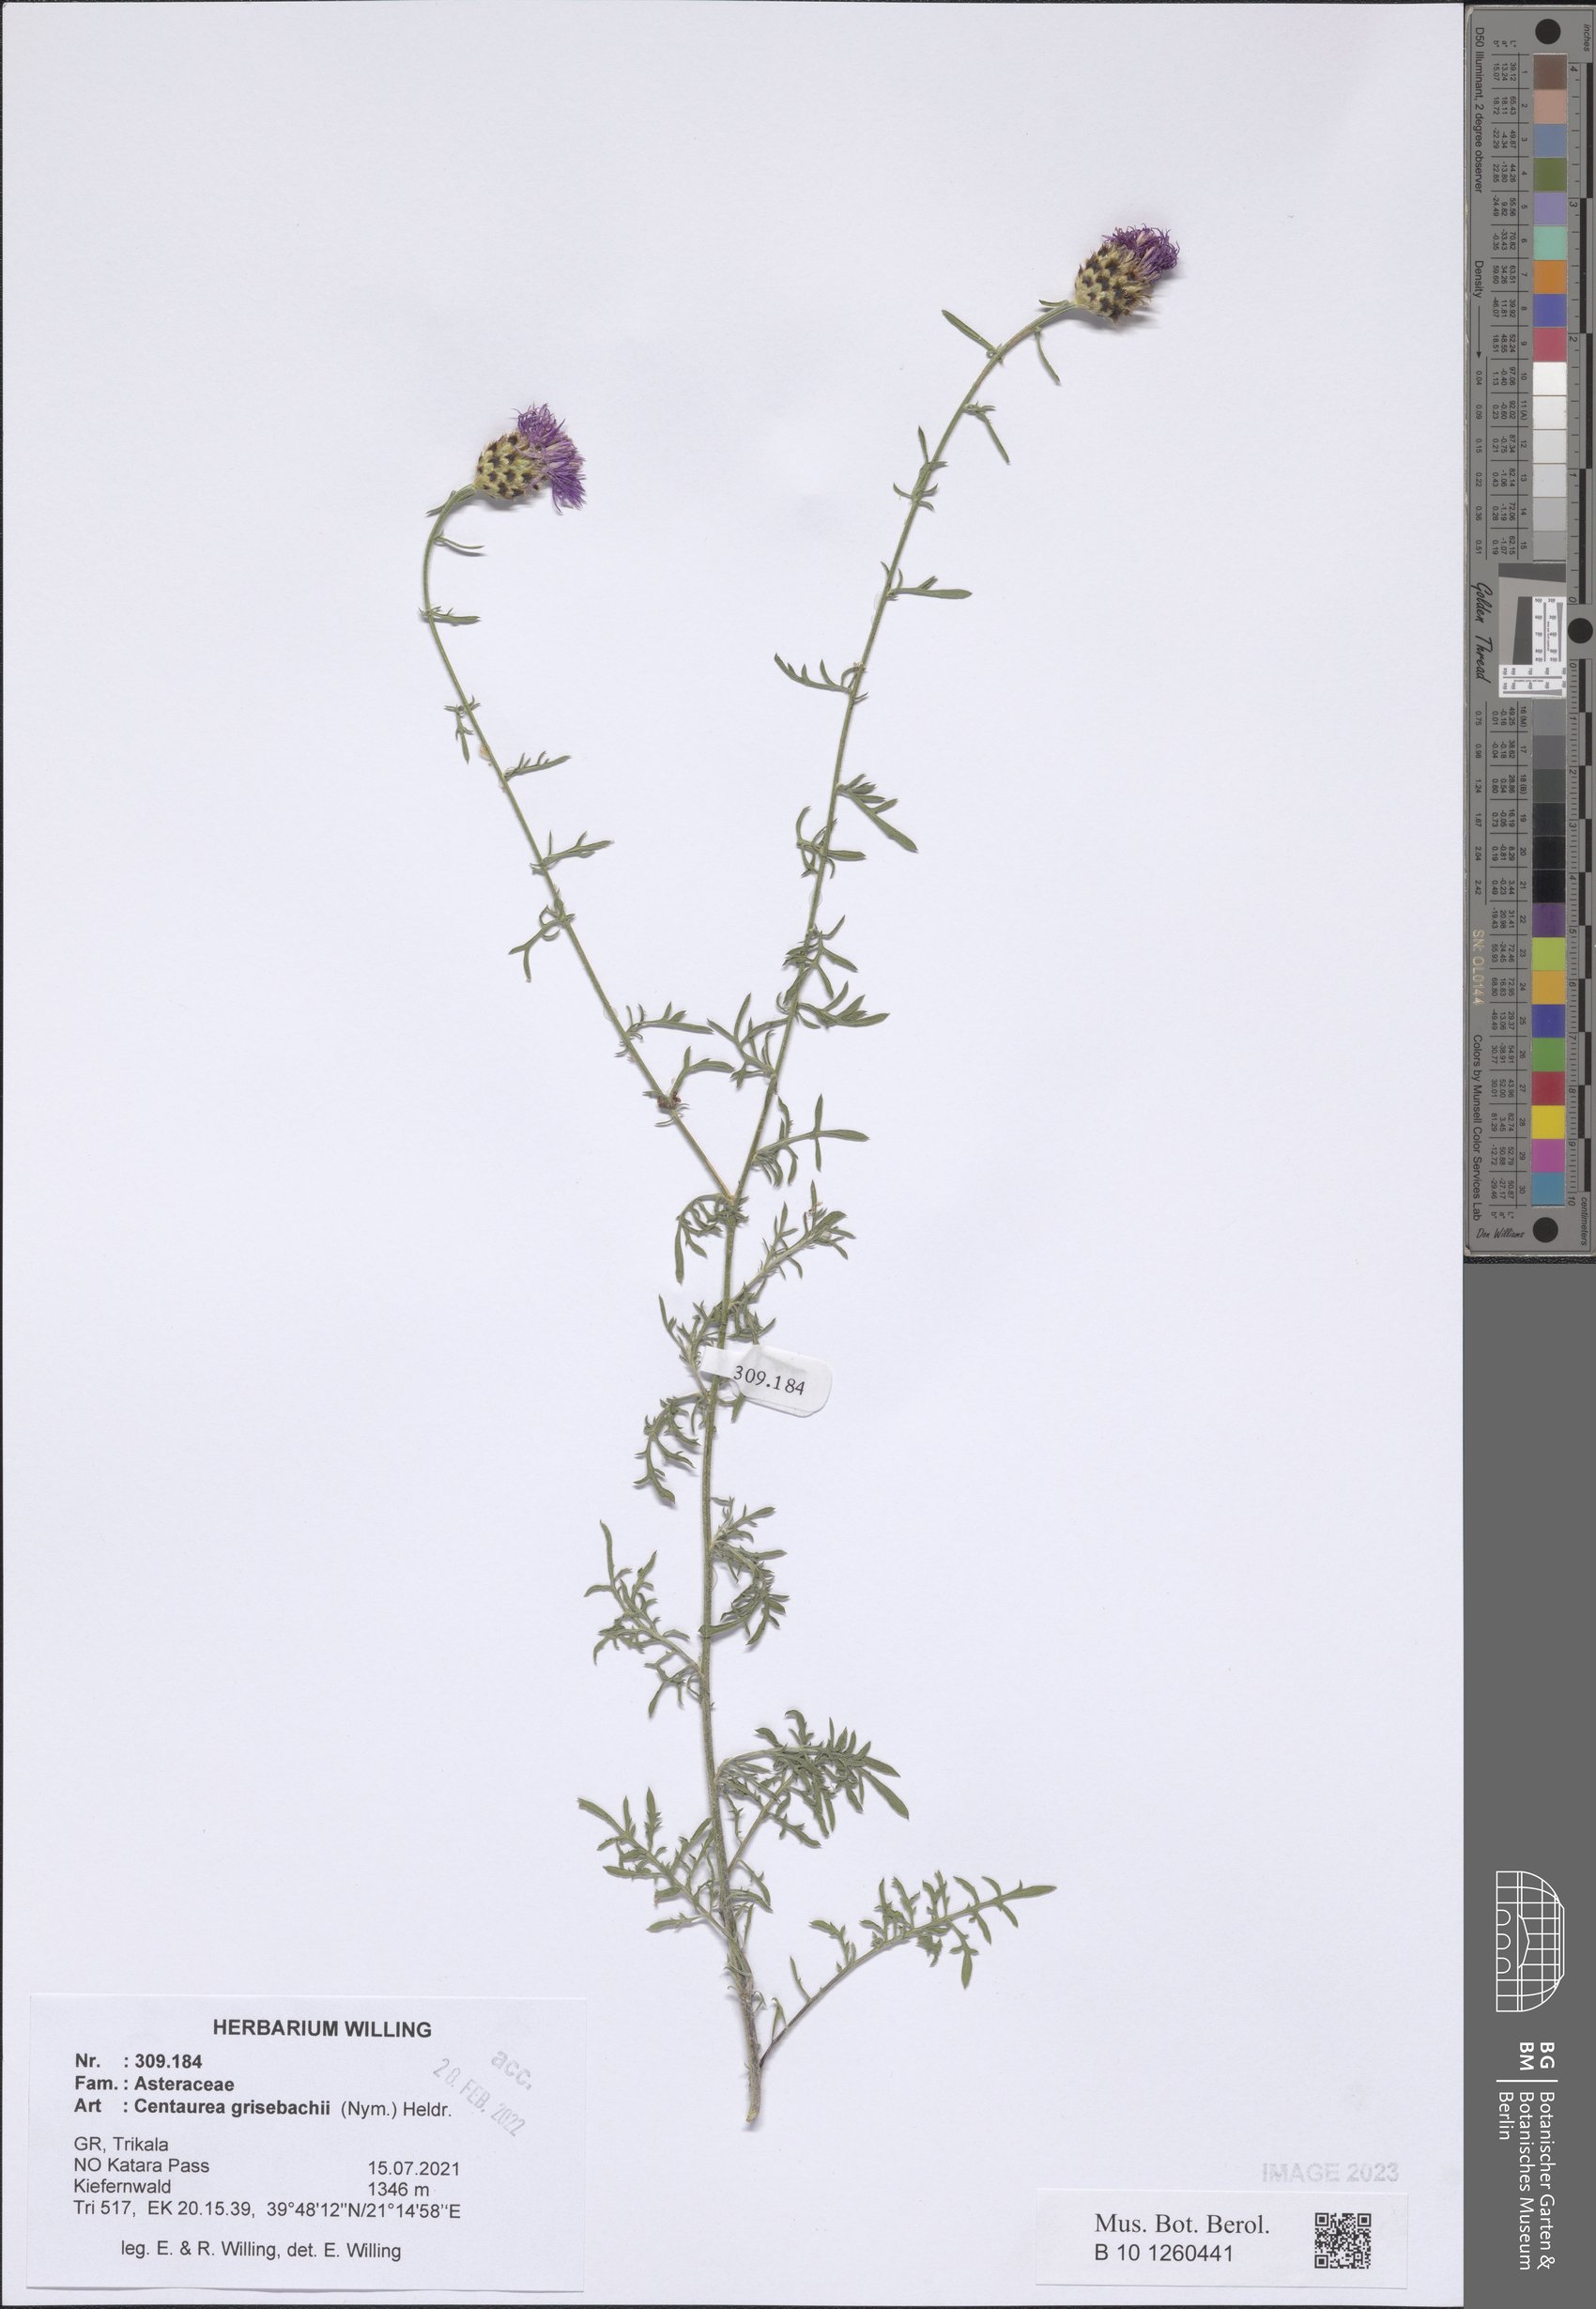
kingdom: Plantae
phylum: Tracheophyta
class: Magnoliopsida
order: Asterales
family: Asteraceae
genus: Centaurea
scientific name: Centaurea grisebachii
